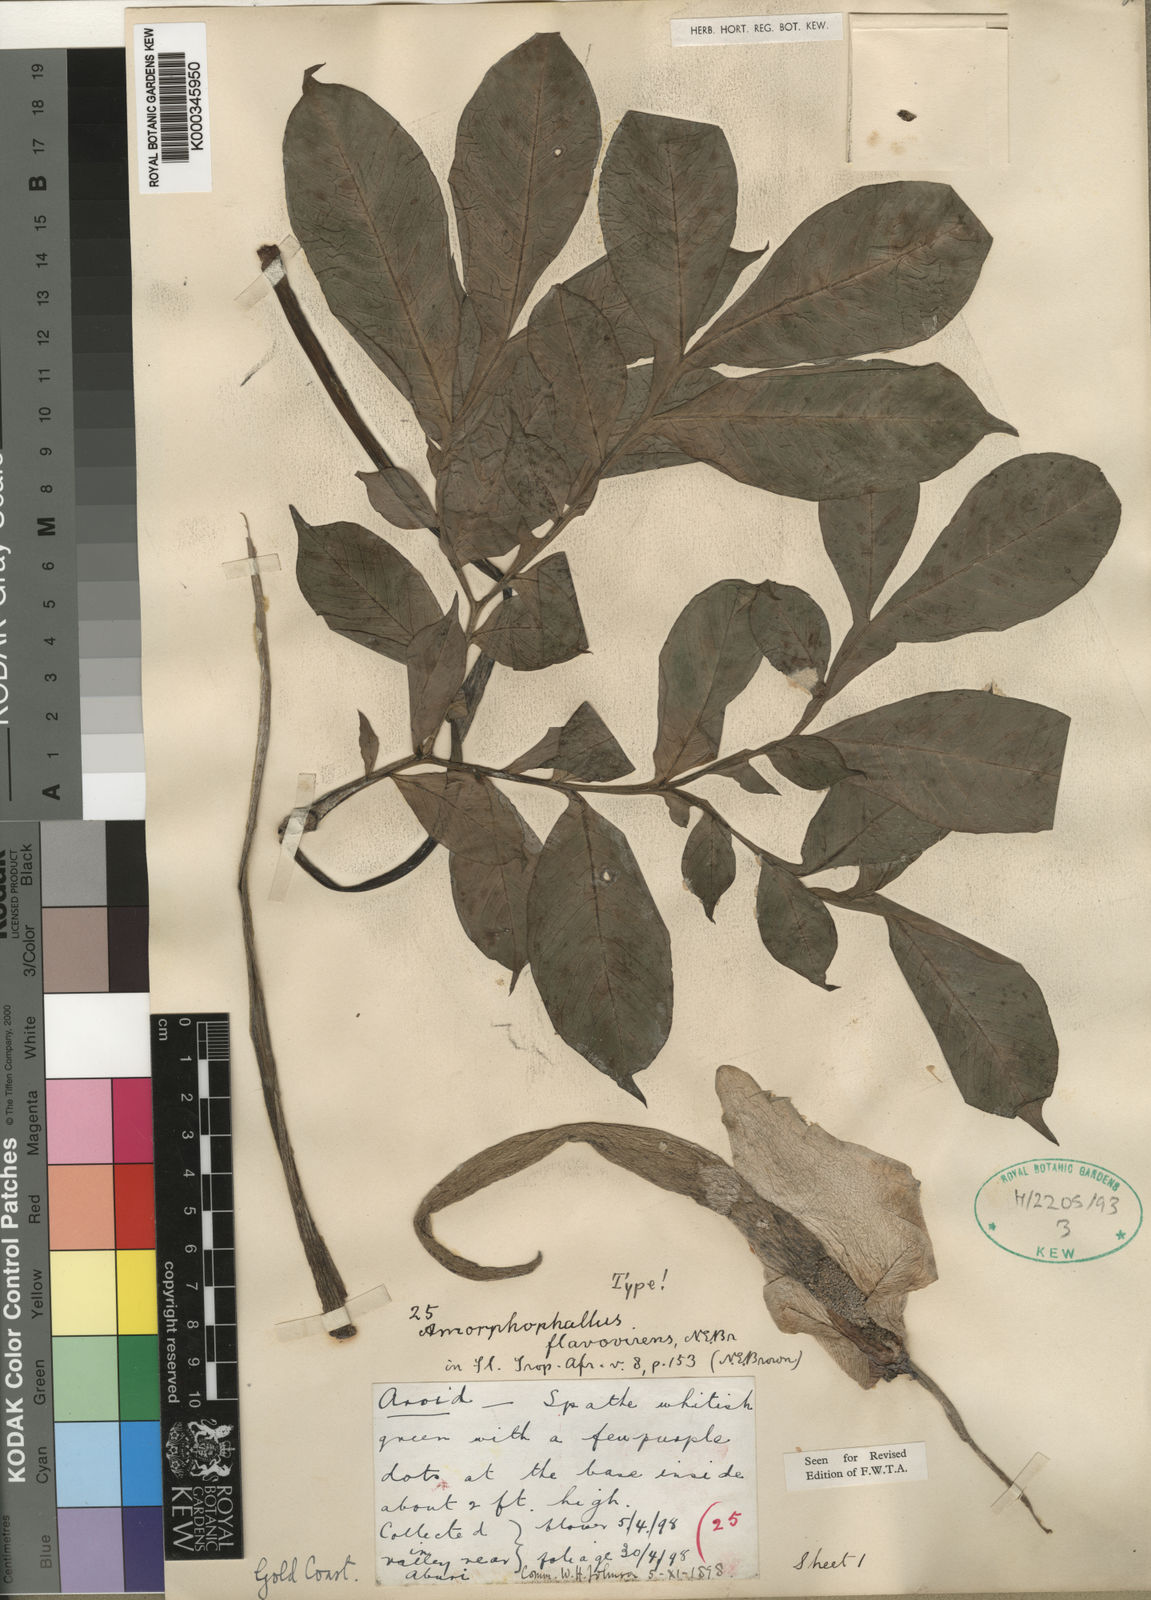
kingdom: Plantae
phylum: Tracheophyta
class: Liliopsida
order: Alismatales
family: Araceae
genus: Amorphophallus
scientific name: Amorphophallus baumannii
